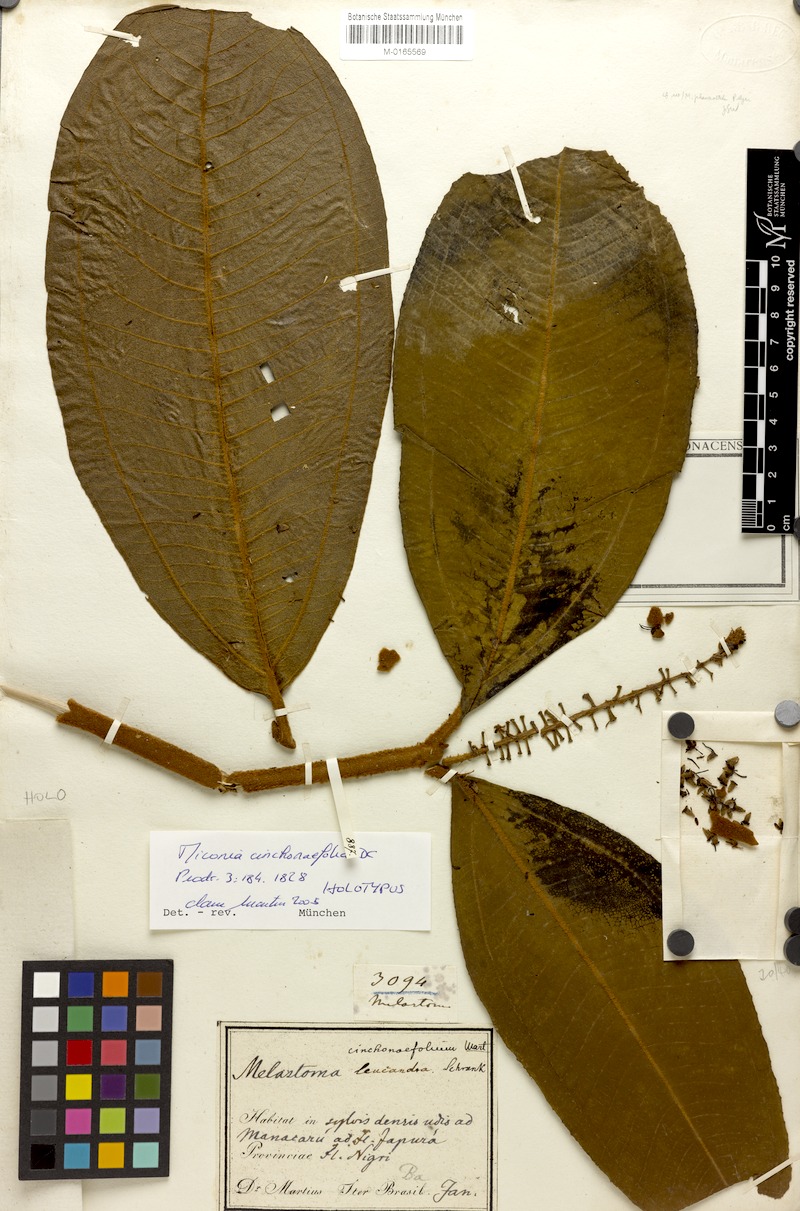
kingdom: Plantae
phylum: Tracheophyta
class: Magnoliopsida
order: Myrtales
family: Melastomataceae
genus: Miconia
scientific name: Miconia cinchonifolia
